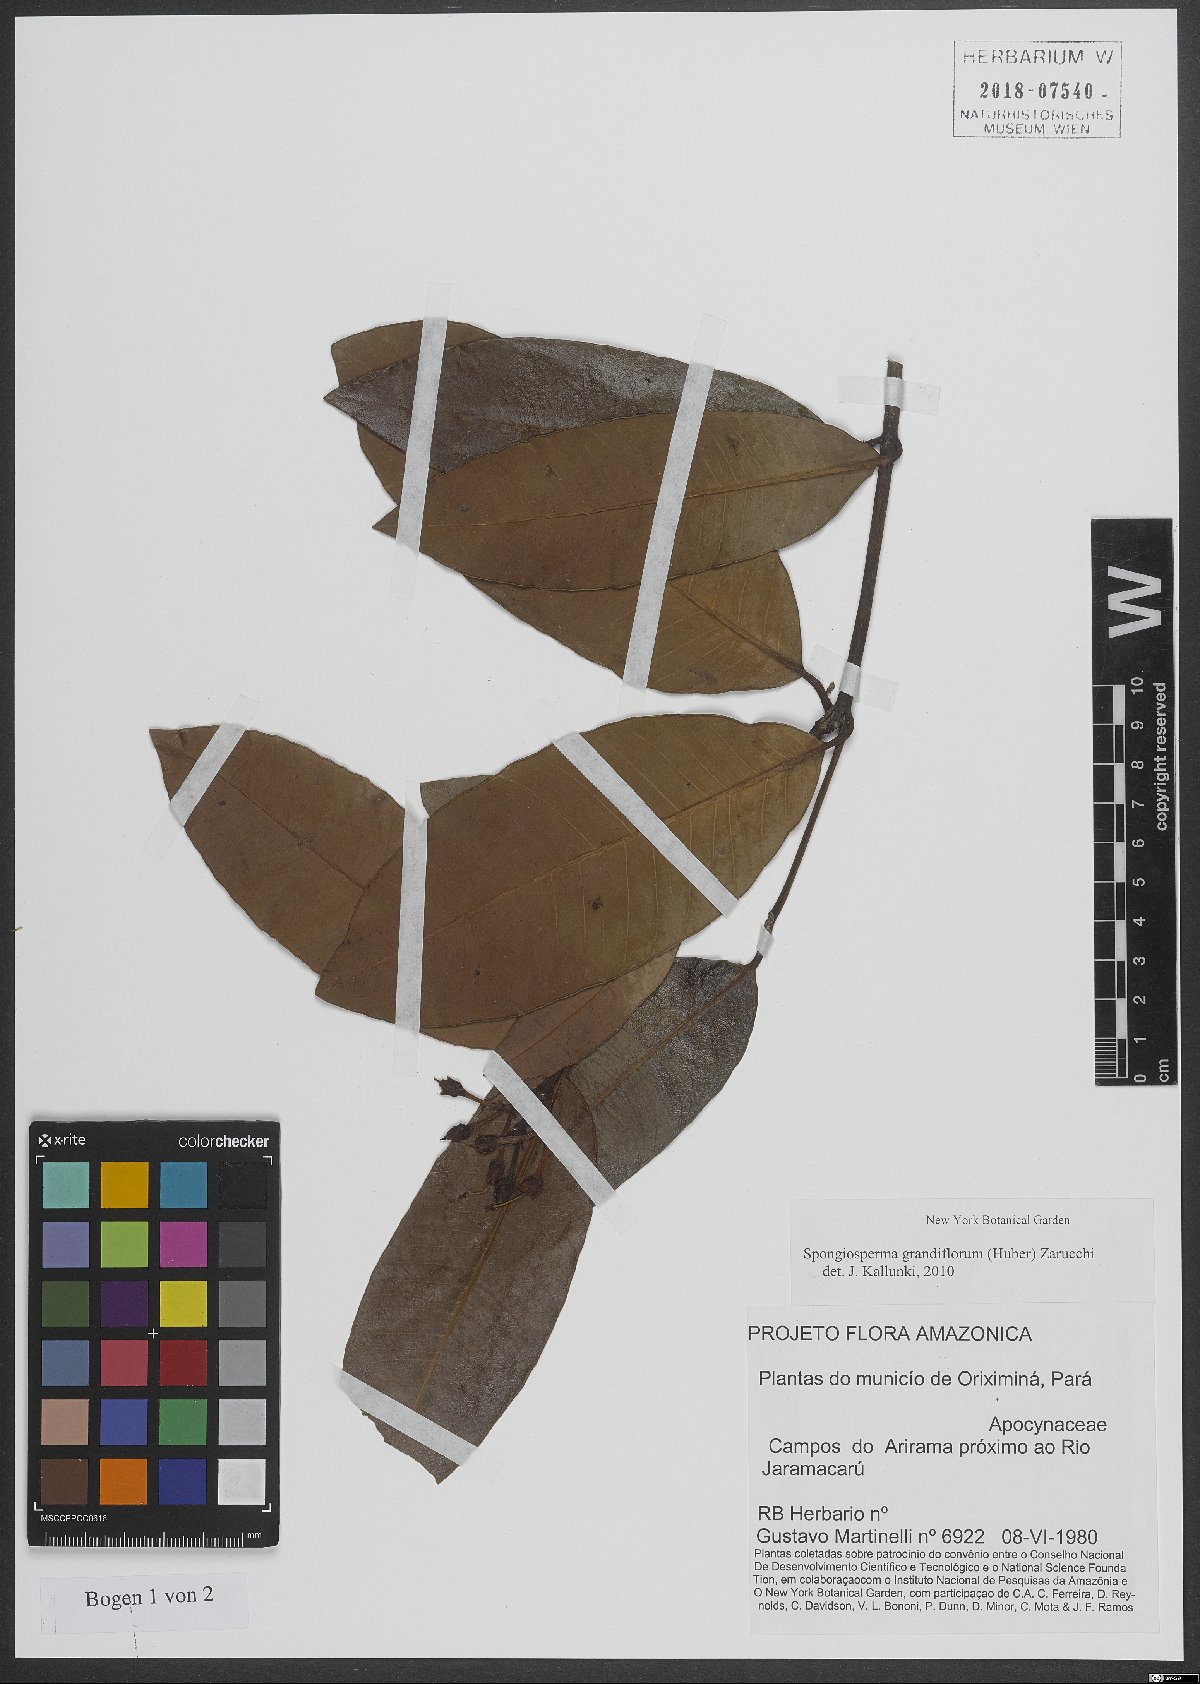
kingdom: Plantae
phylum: Tracheophyta
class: Magnoliopsida
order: Gentianales
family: Apocynaceae
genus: Spongiosperma
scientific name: Spongiosperma grandiflorum
